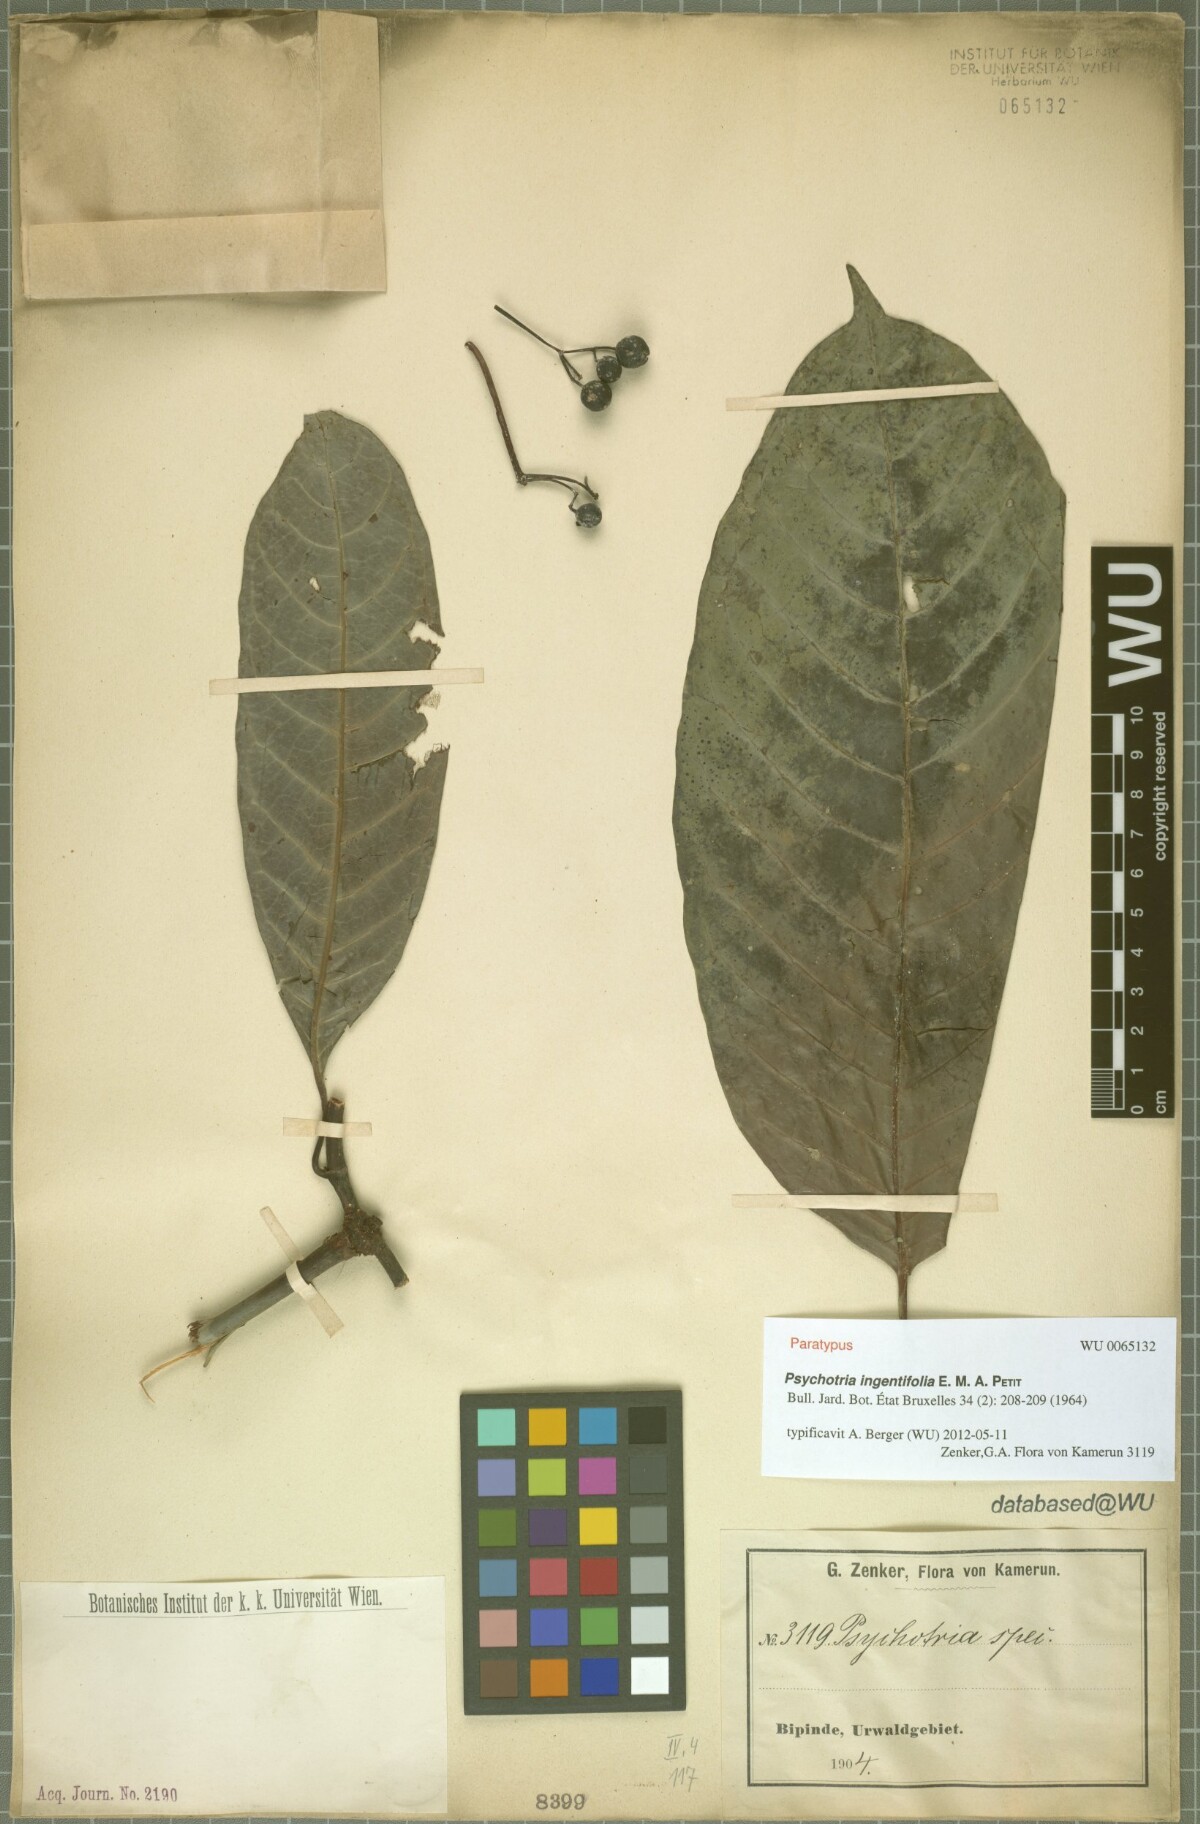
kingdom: Plantae
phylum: Tracheophyta
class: Magnoliopsida
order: Gentianales
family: Rubiaceae
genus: Psychotria
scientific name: Psychotria ingentifolia
